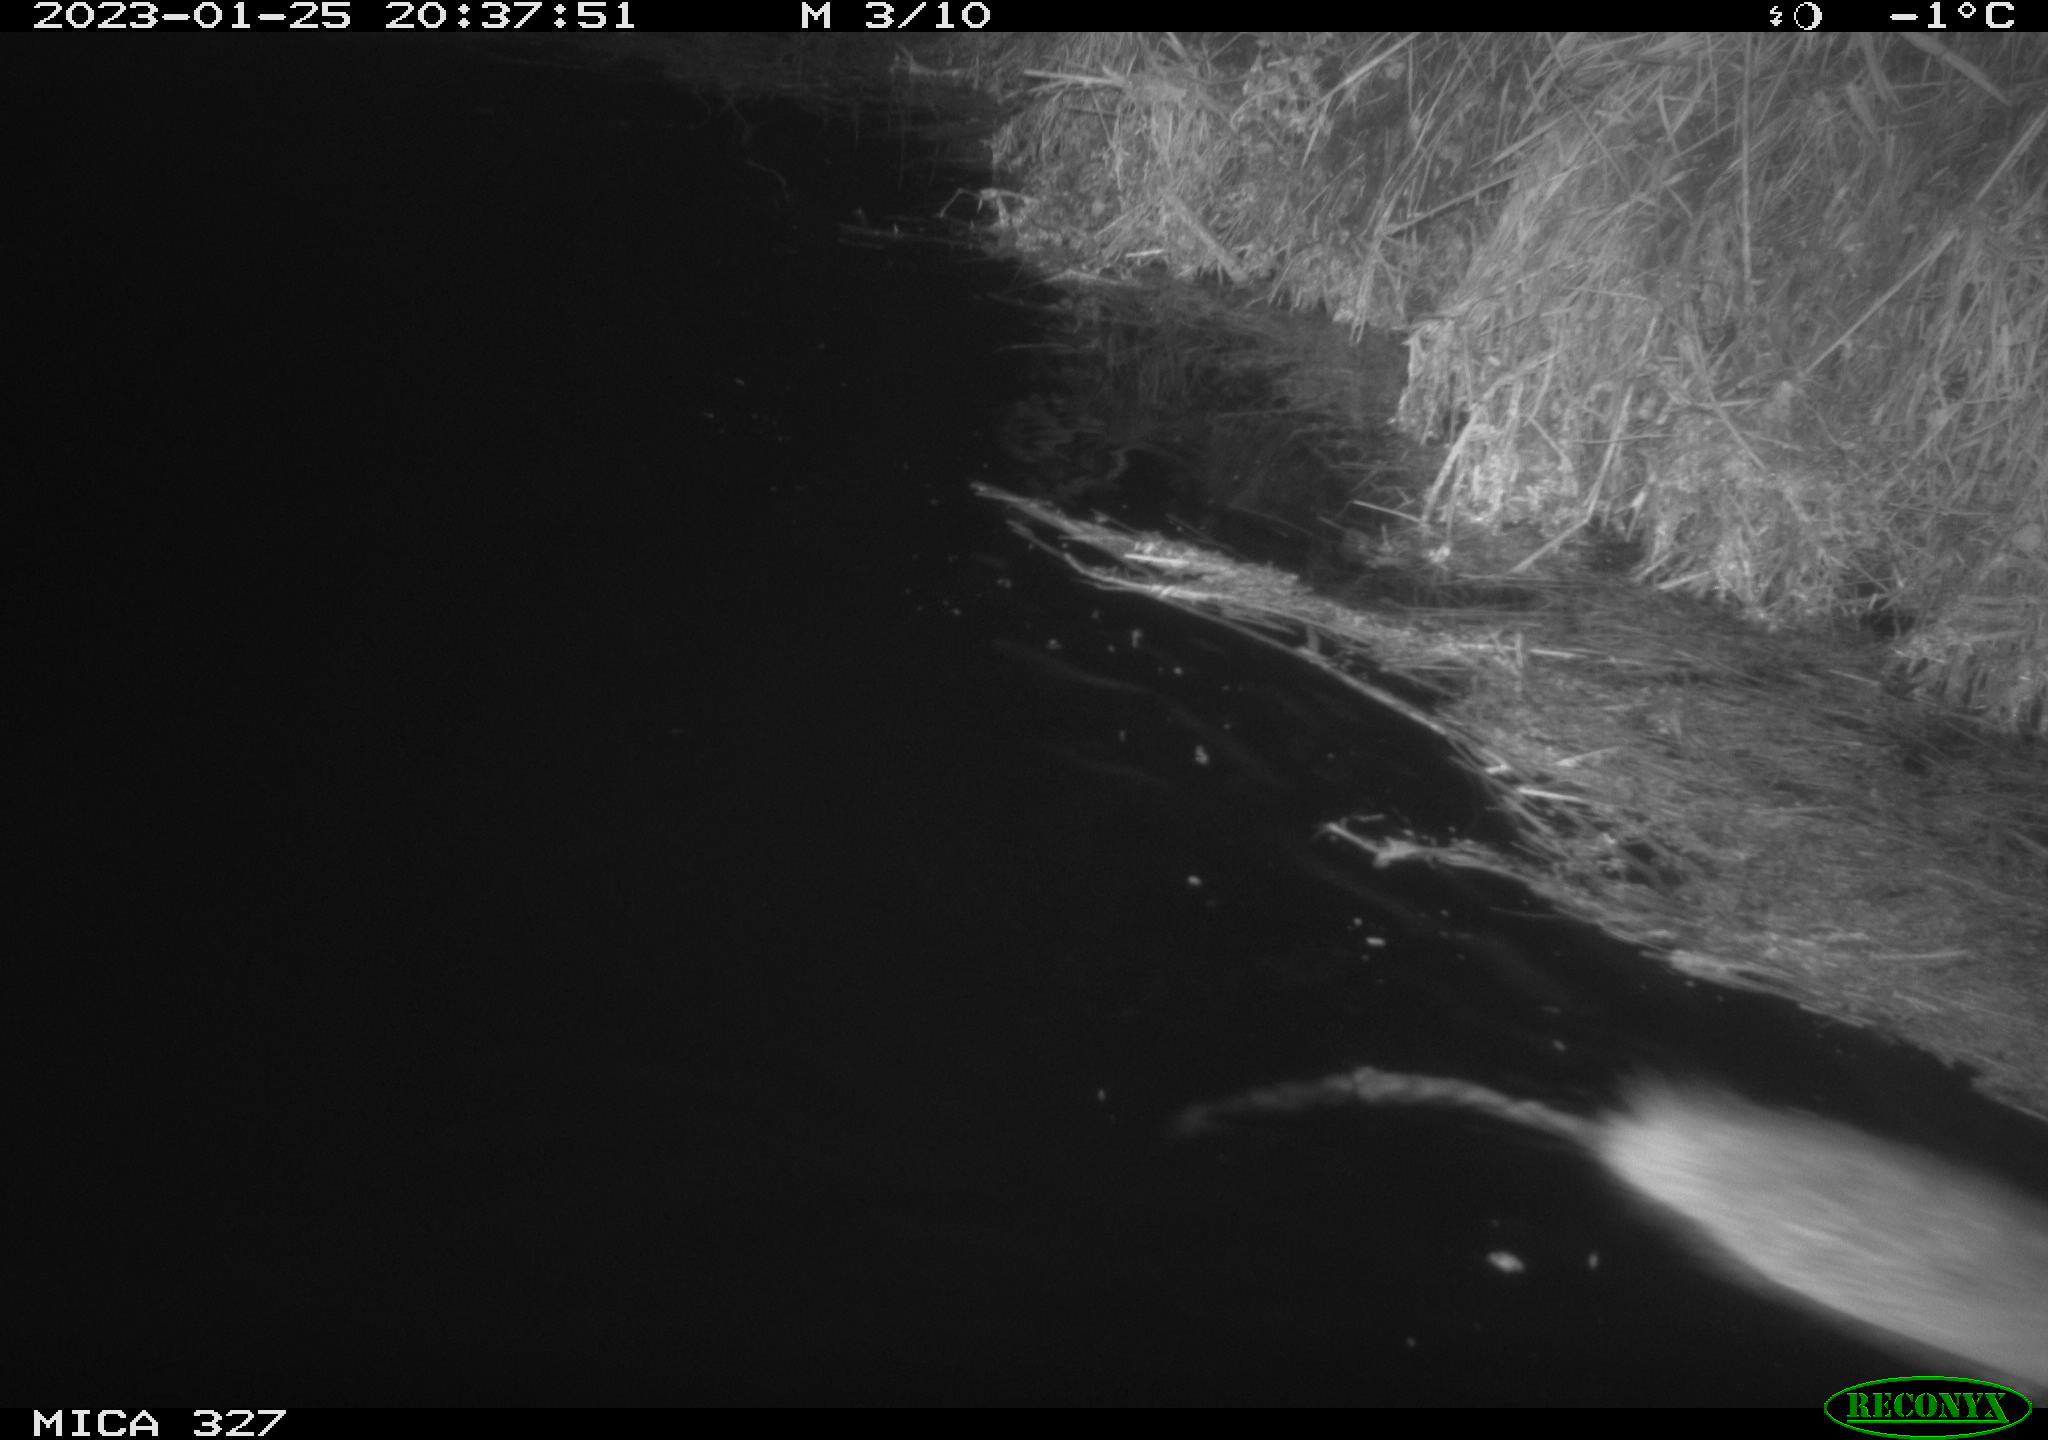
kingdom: Animalia
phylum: Chordata
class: Mammalia
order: Rodentia
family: Cricetidae
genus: Ondatra
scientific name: Ondatra zibethicus
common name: Muskrat
